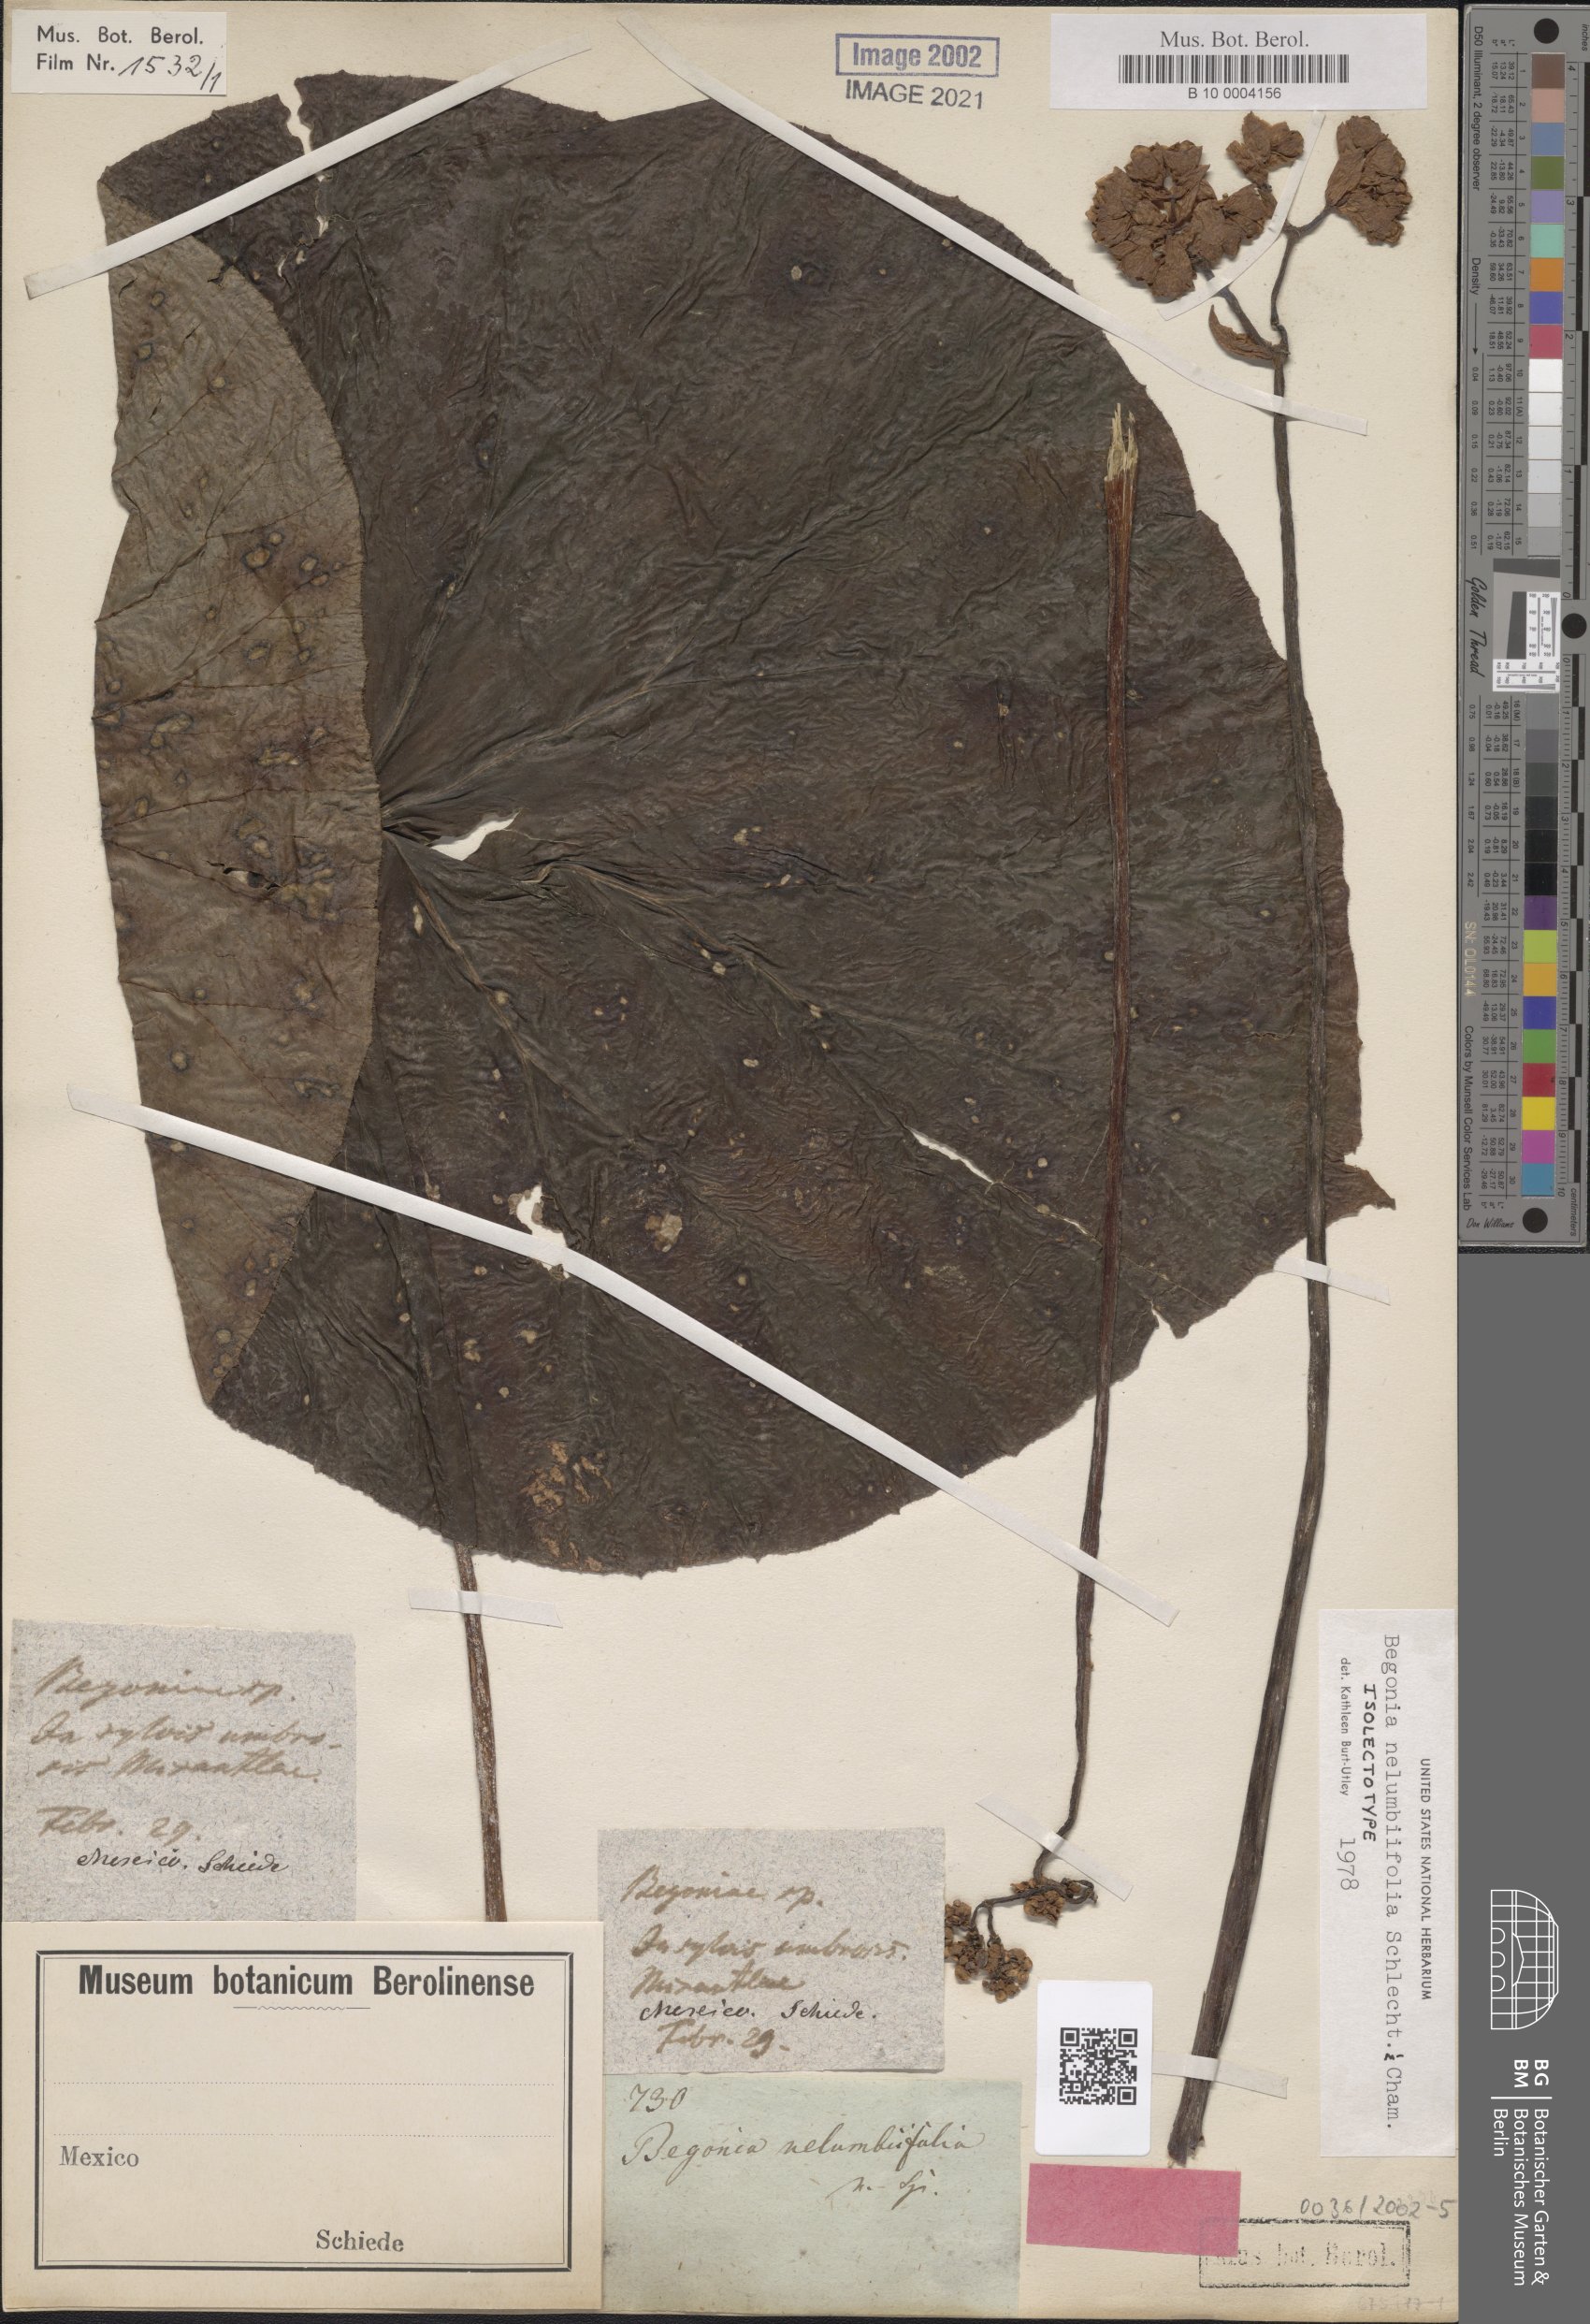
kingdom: Plantae
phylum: Tracheophyta
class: Magnoliopsida
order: Cucurbitales
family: Begoniaceae
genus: Begonia
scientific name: Begonia nelumbiifolia
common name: Lilypad begonia
